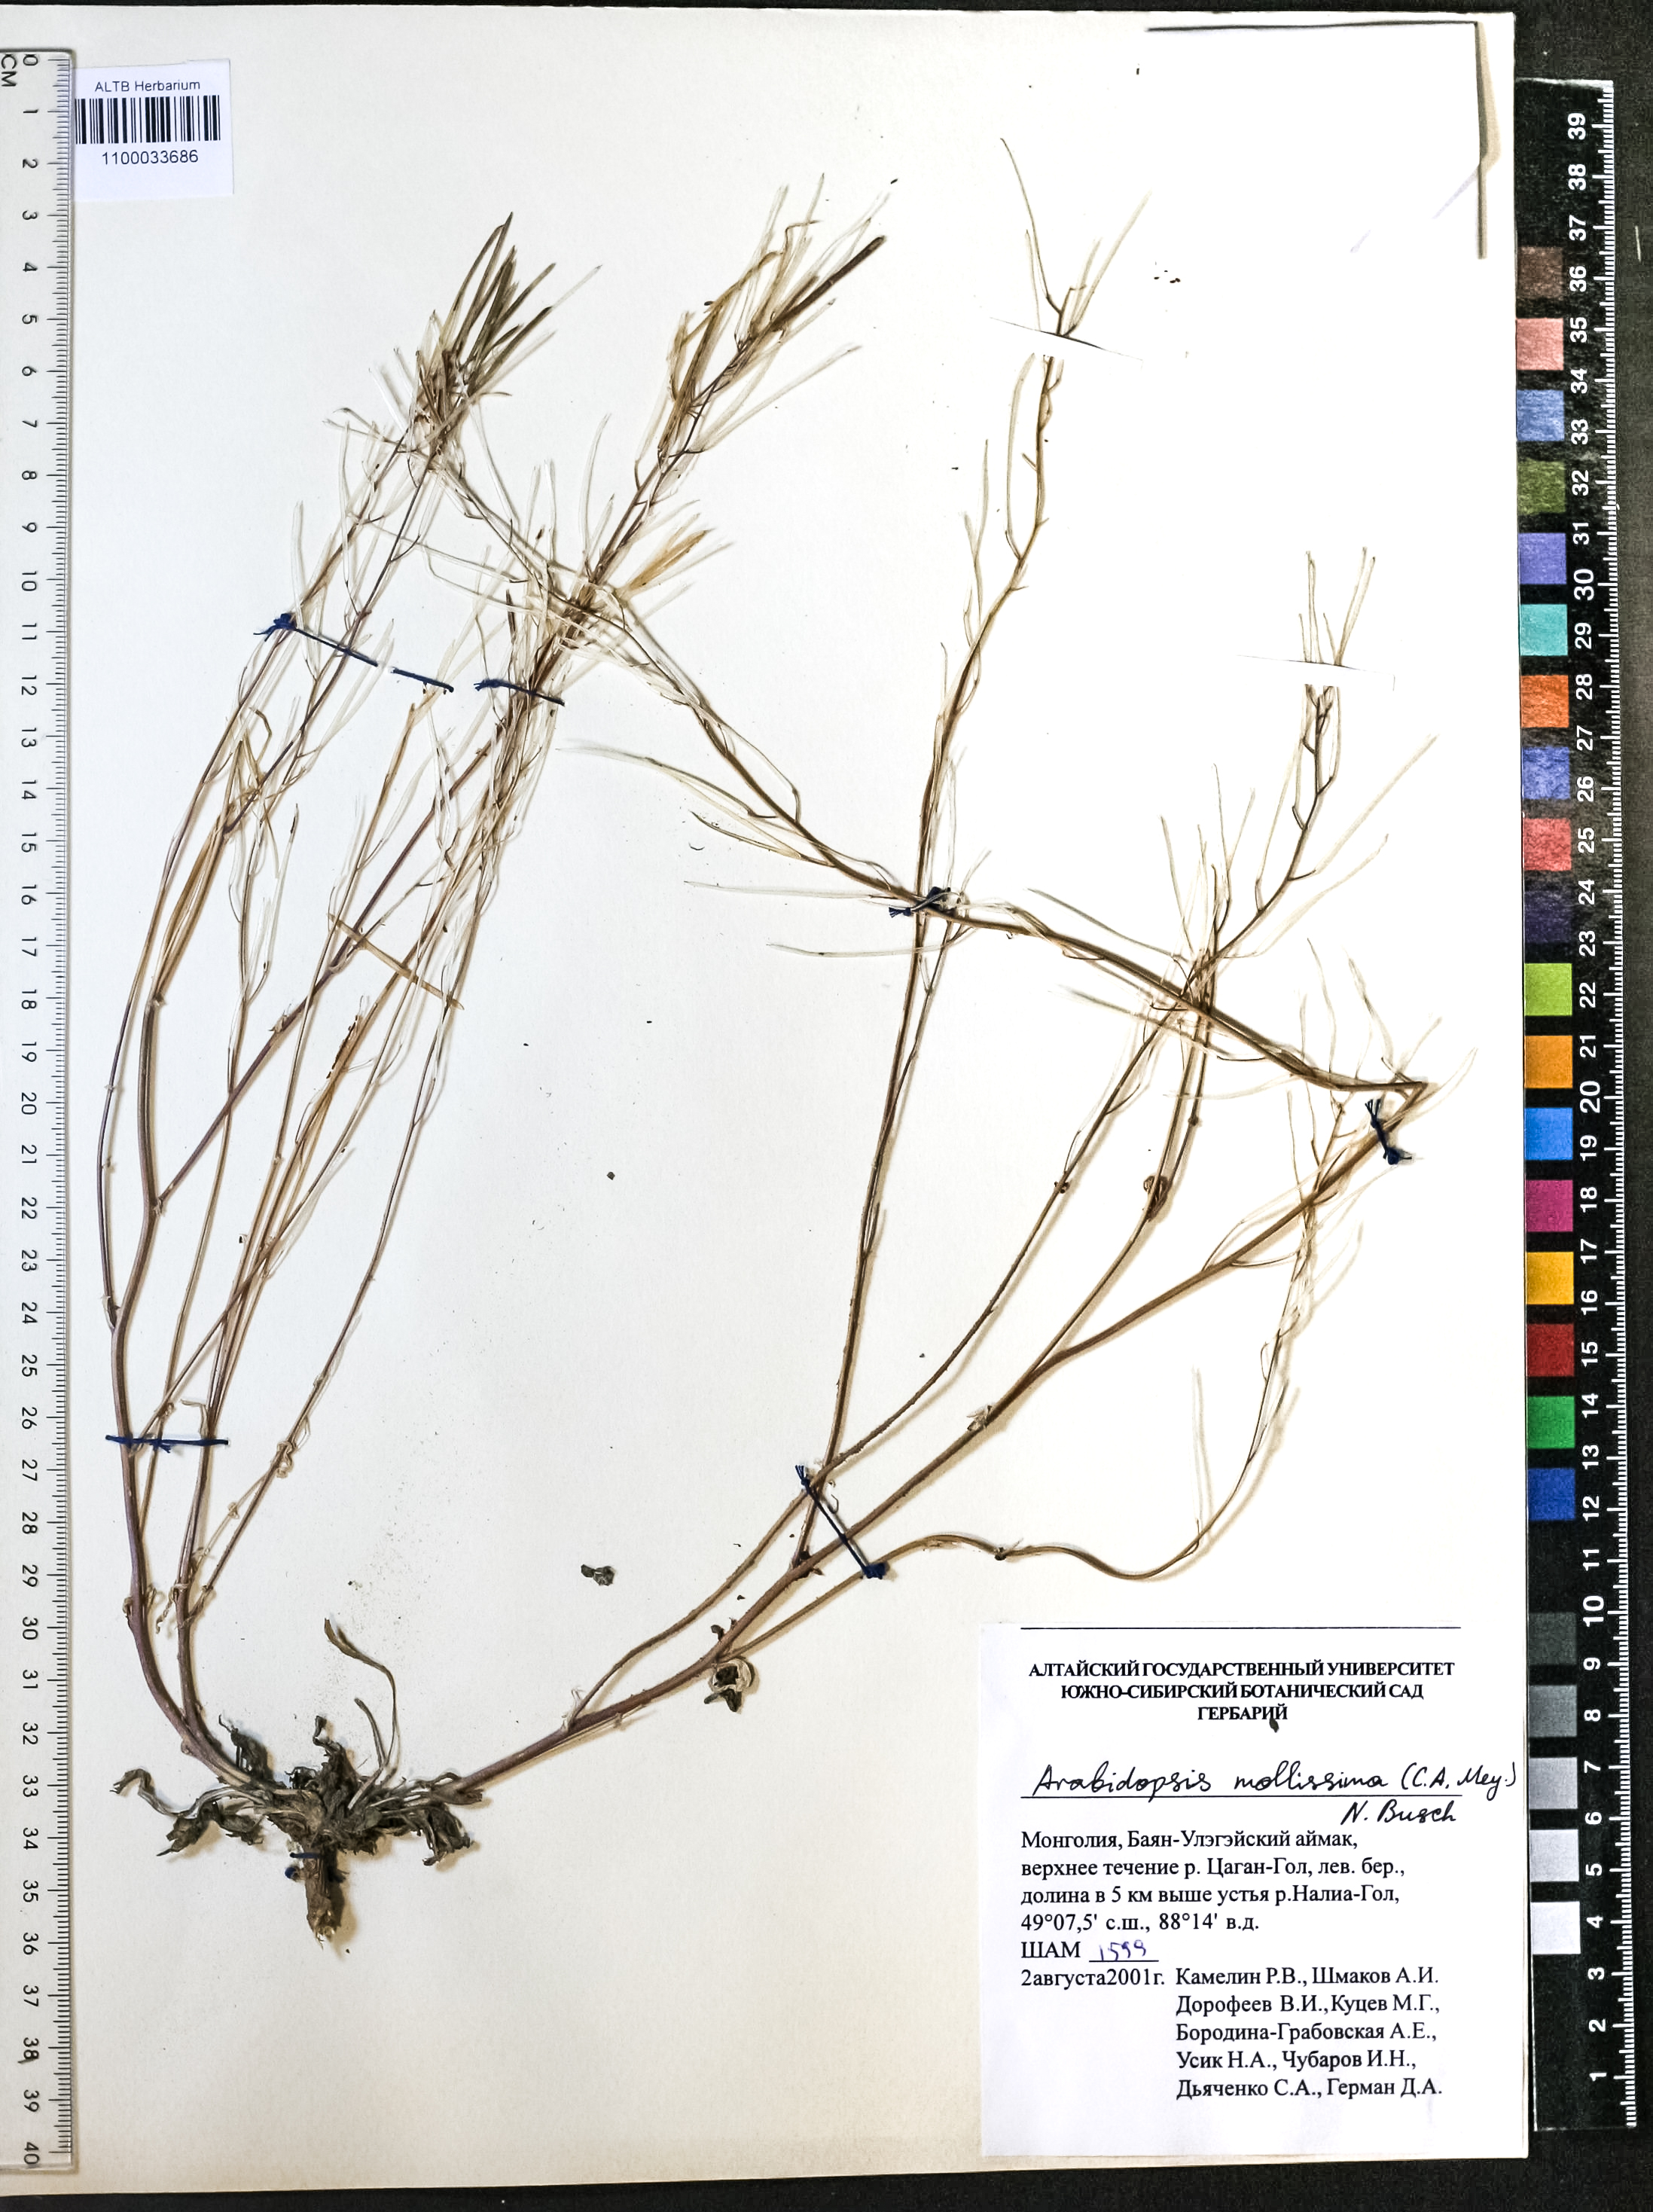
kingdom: Plantae
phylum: Tracheophyta
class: Magnoliopsida
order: Brassicales
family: Brassicaceae
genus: Crucihimalaya
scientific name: Crucihimalaya mollissima
